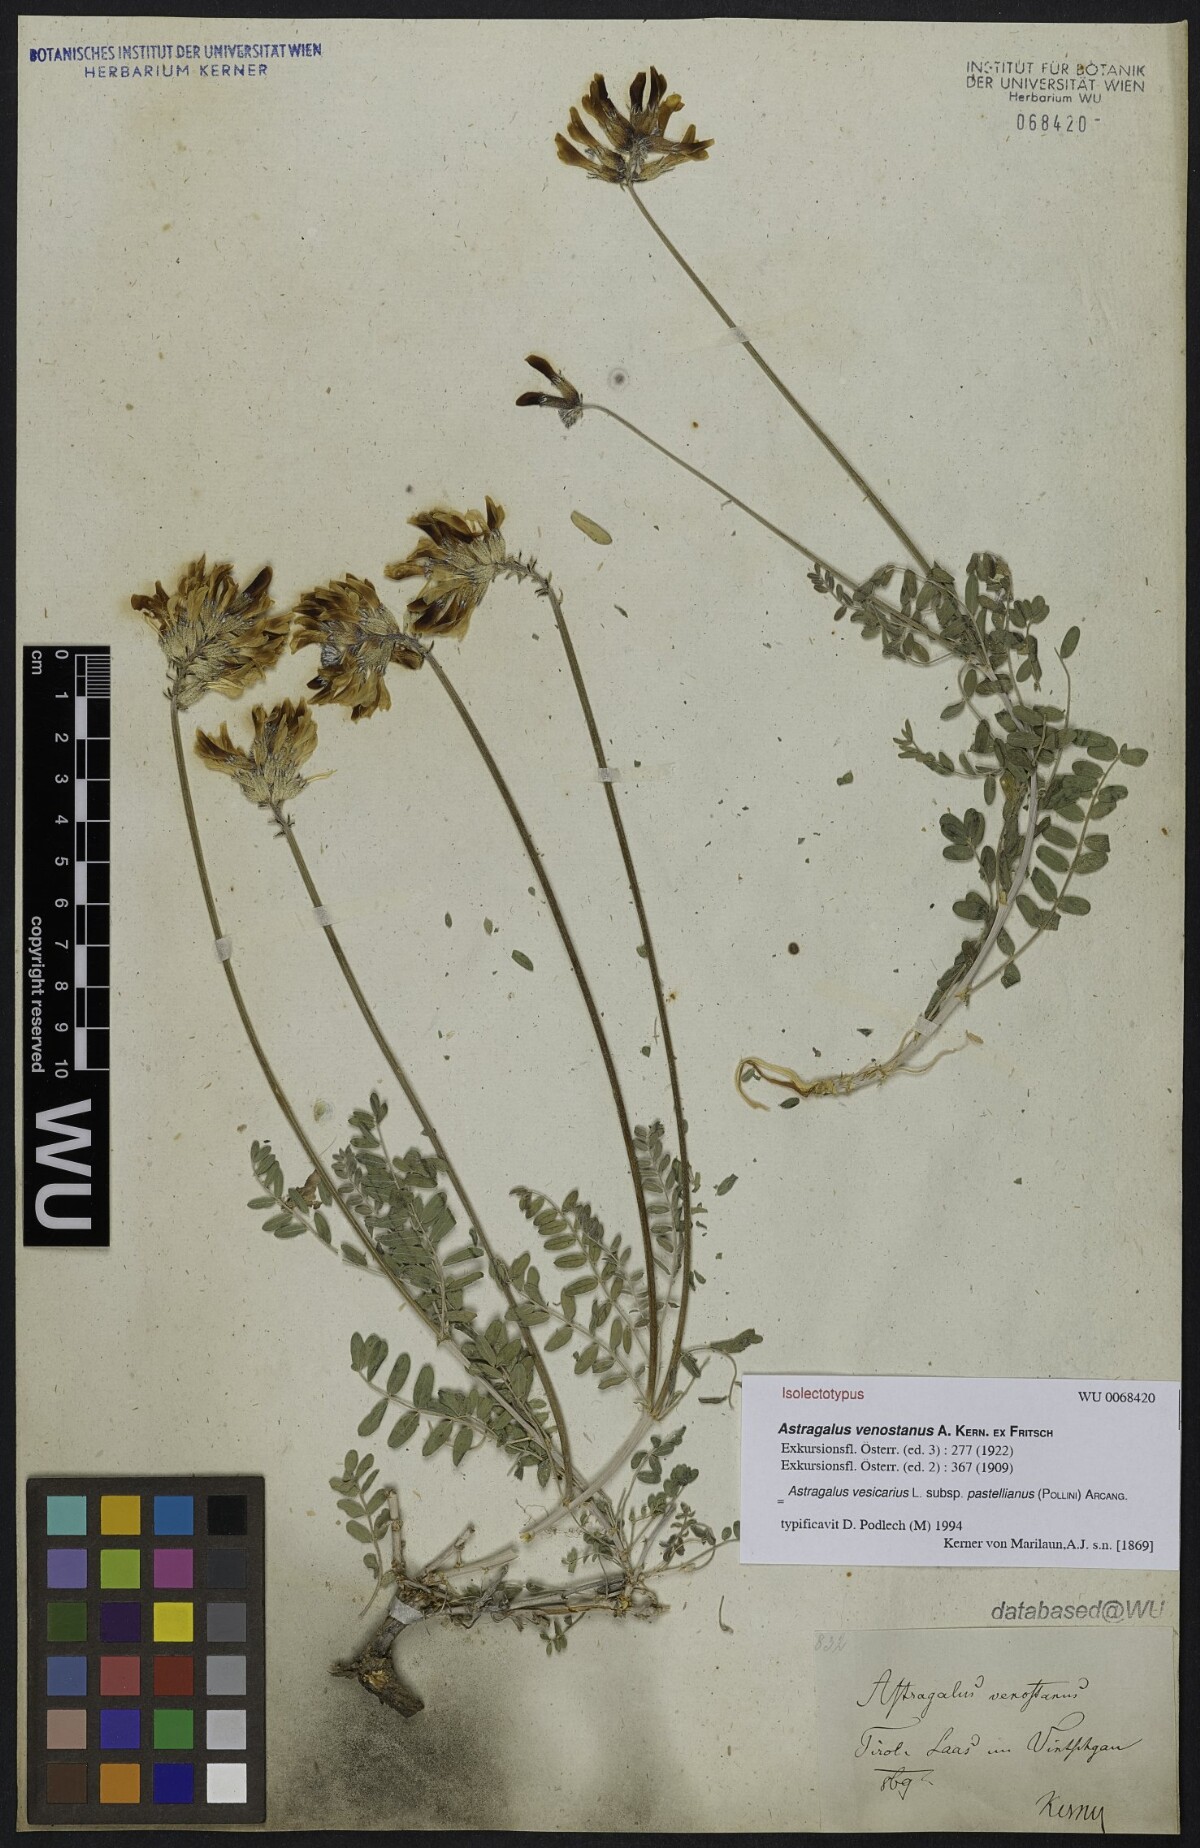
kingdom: Plantae
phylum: Tracheophyta
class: Magnoliopsida
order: Fabales
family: Fabaceae
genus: Astragalus
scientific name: Astragalus vesicarius
